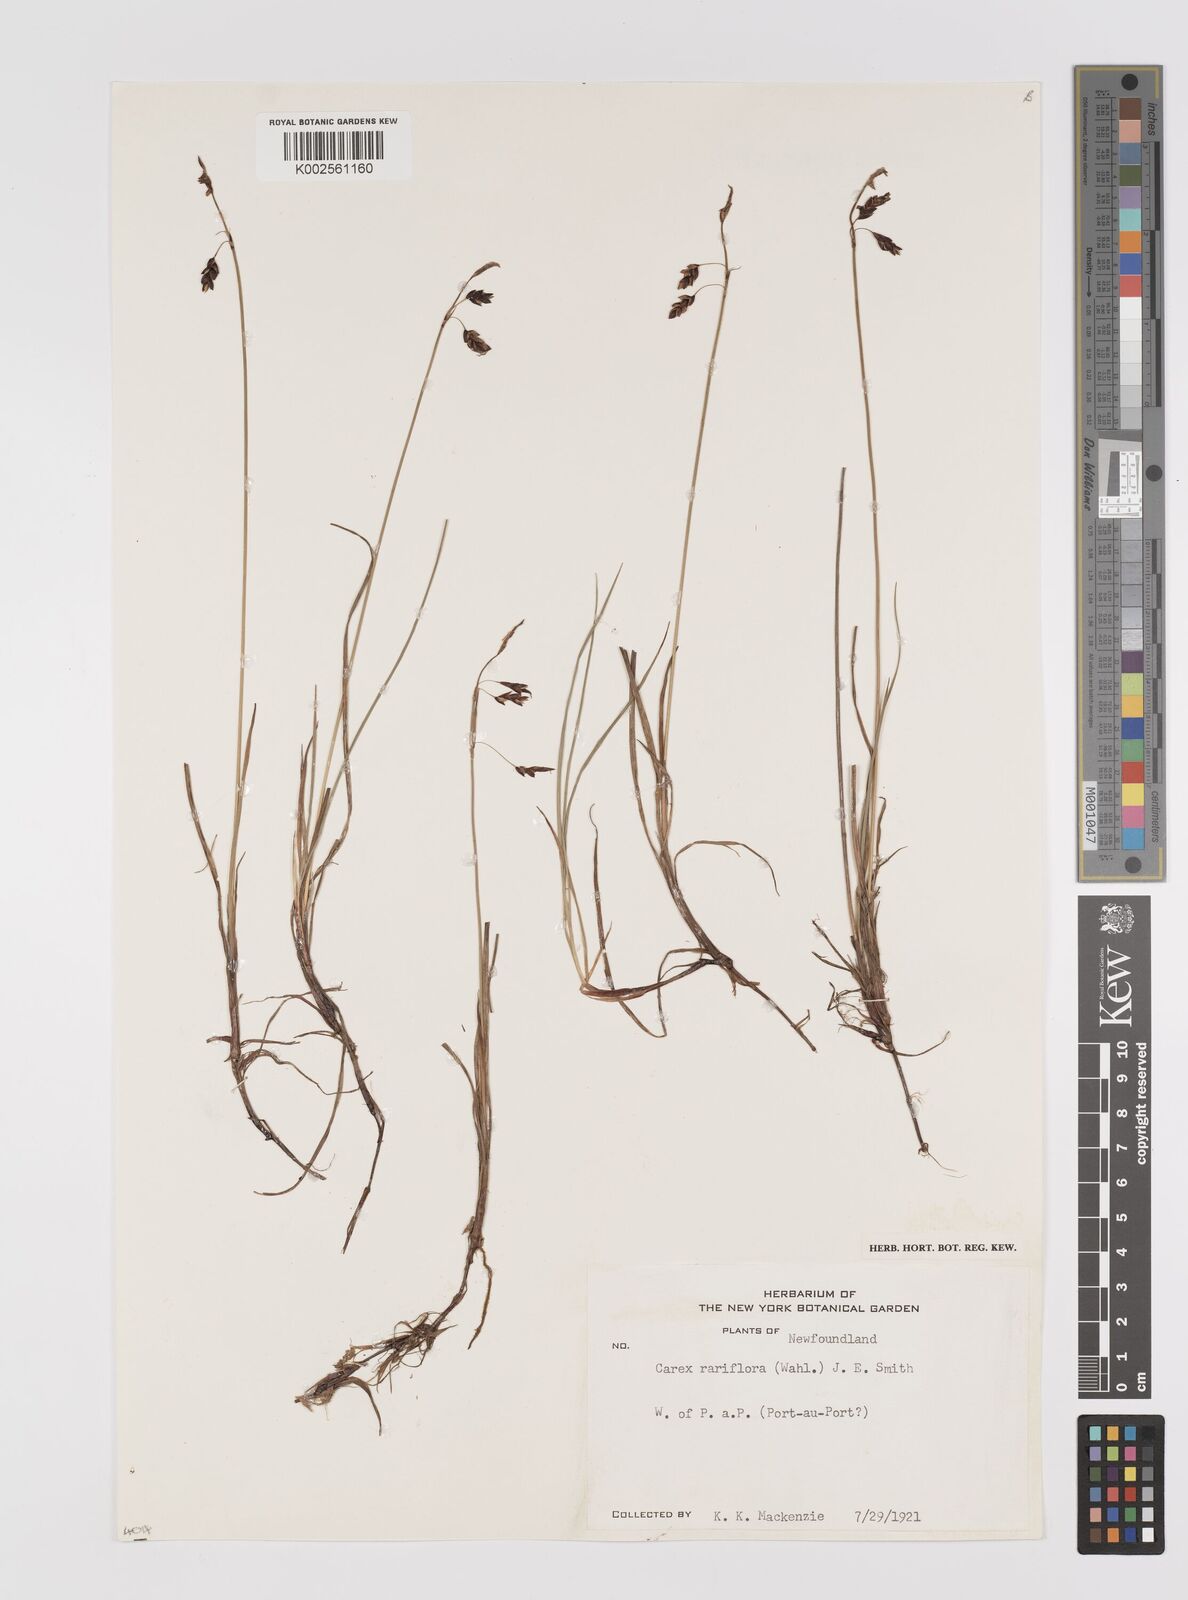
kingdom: Plantae
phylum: Tracheophyta
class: Liliopsida
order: Poales
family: Cyperaceae
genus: Carex
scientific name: Carex rariflora
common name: Loose-flowered alpine sedge
